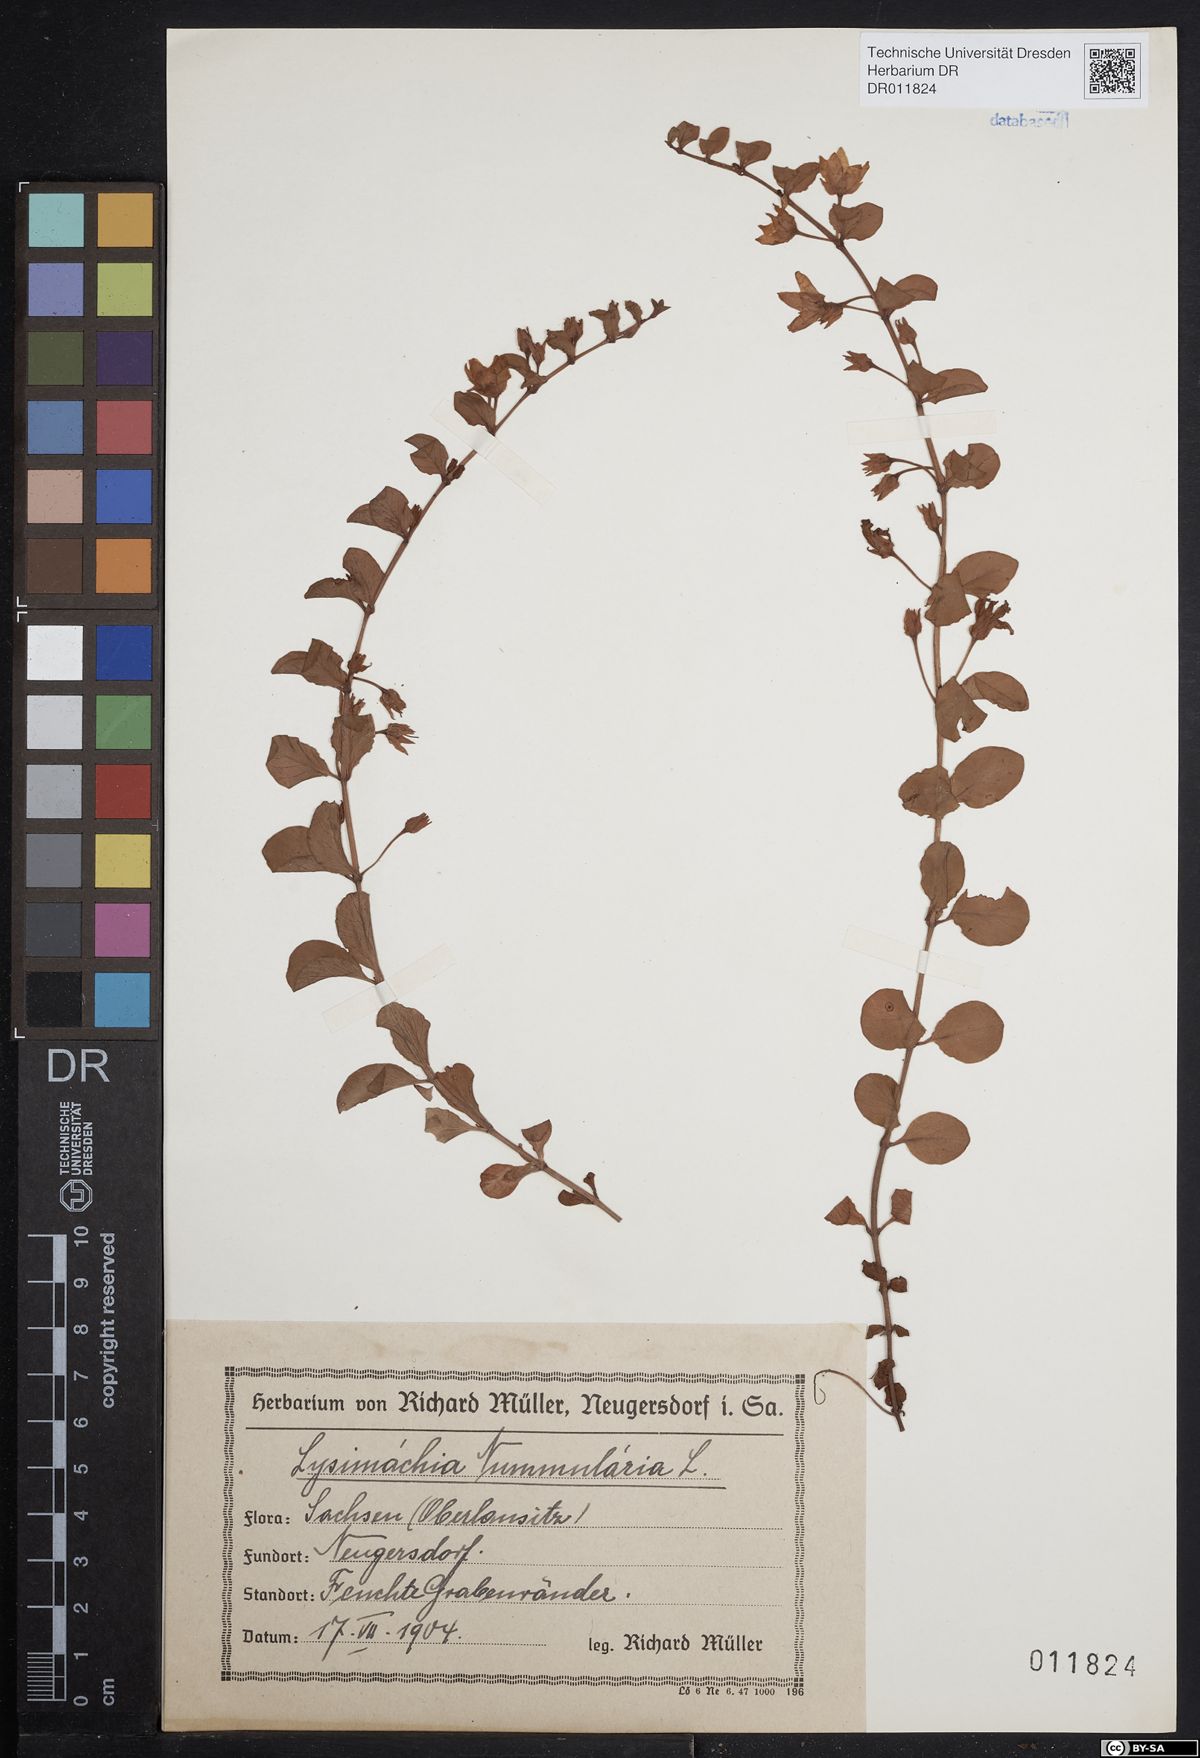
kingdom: Plantae
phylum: Tracheophyta
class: Magnoliopsida
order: Ericales
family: Primulaceae
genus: Lysimachia
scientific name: Lysimachia nummularia
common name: Moneywort
